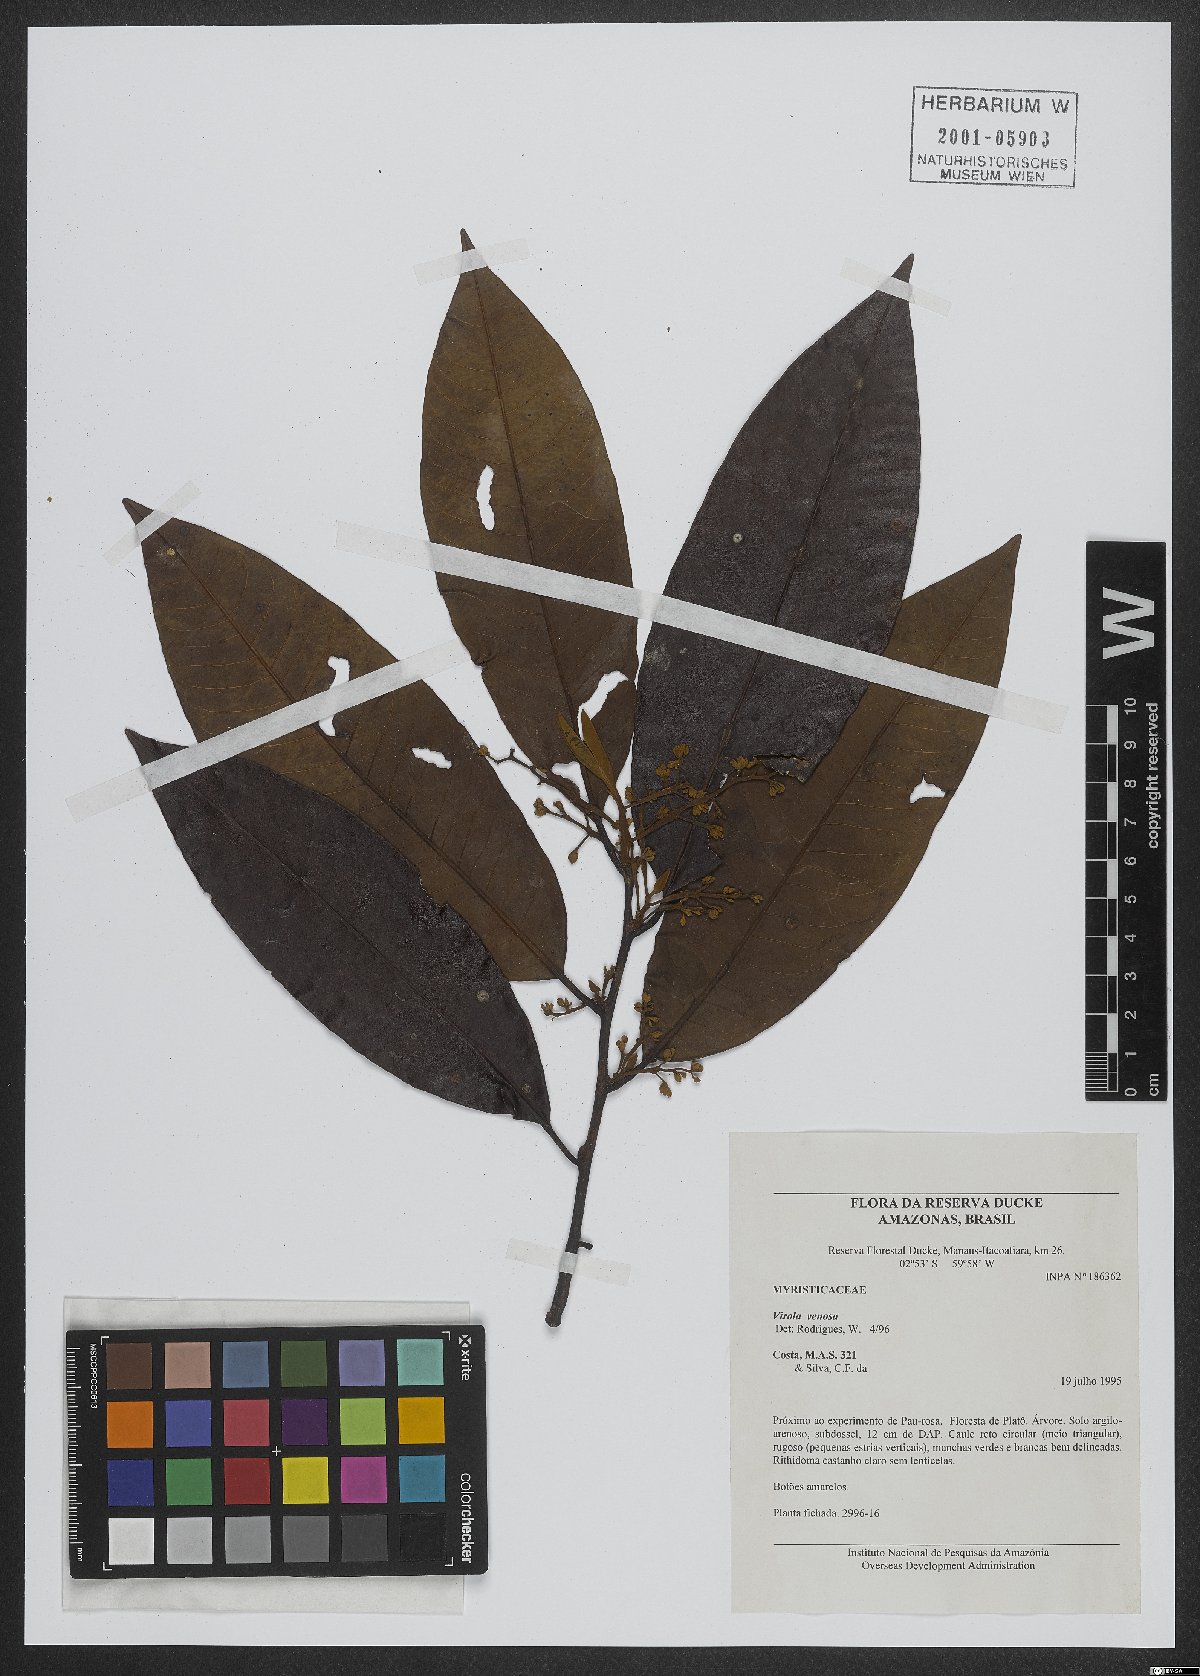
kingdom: Plantae
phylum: Tracheophyta
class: Magnoliopsida
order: Magnoliales
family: Myristicaceae
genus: Virola
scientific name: Virola venosa
